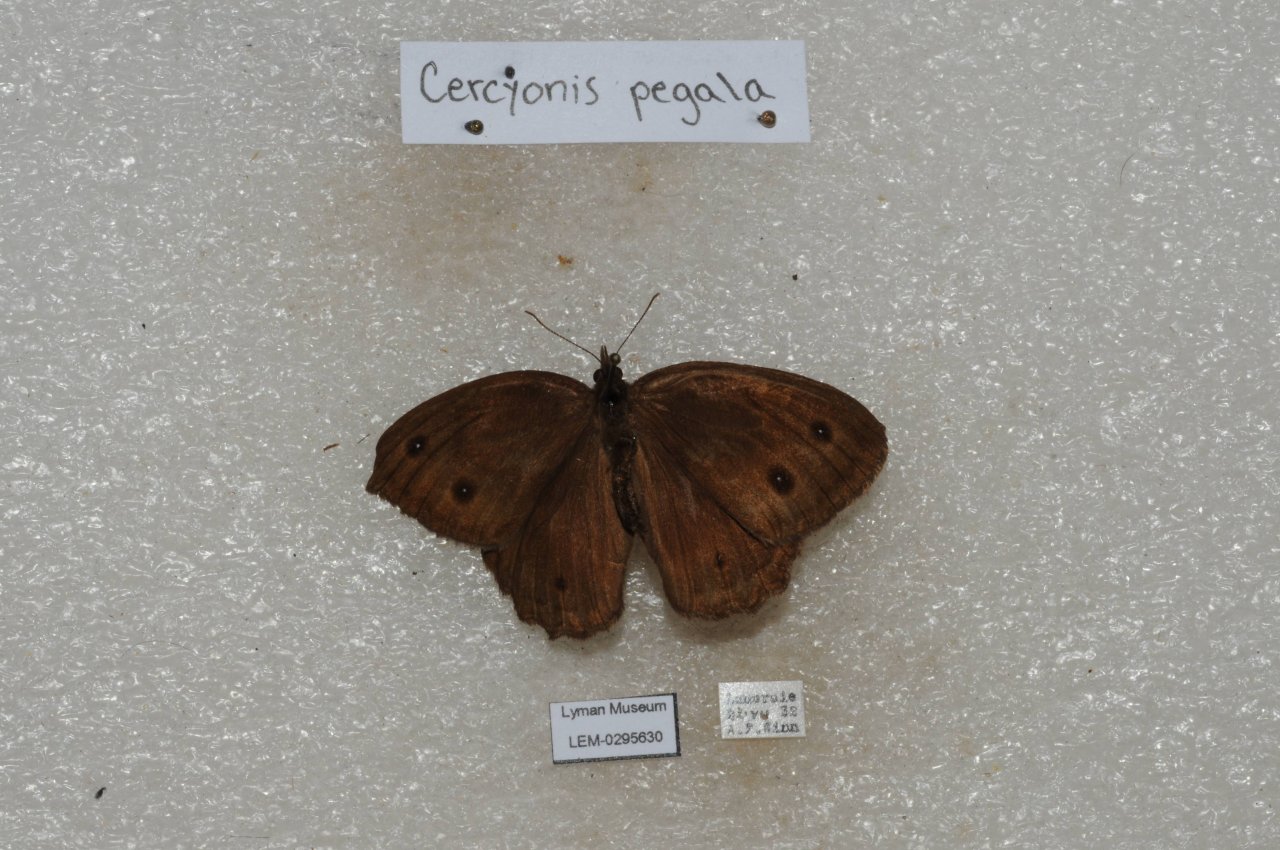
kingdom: Animalia
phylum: Arthropoda
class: Insecta
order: Lepidoptera
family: Nymphalidae
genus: Cercyonis
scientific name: Cercyonis pegala
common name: Common Wood-Nymph
